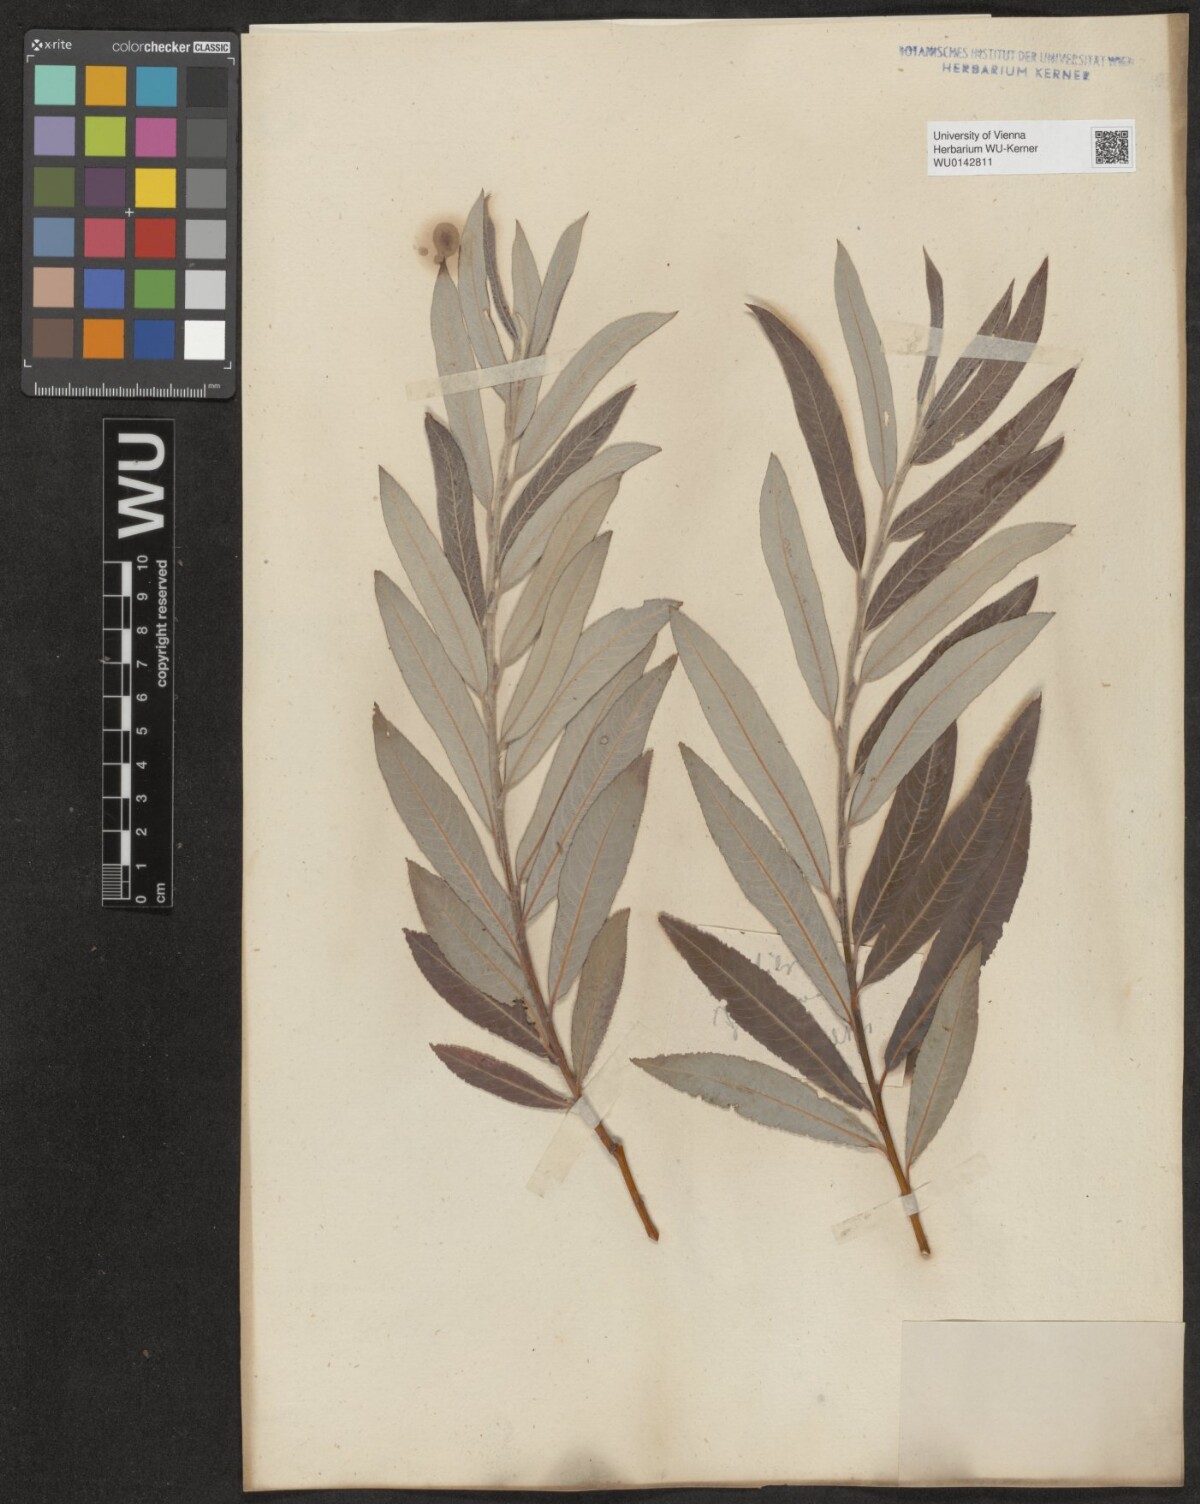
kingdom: Plantae
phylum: Tracheophyta
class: Magnoliopsida
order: Malpighiales
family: Salicaceae
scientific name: Salicaceae
